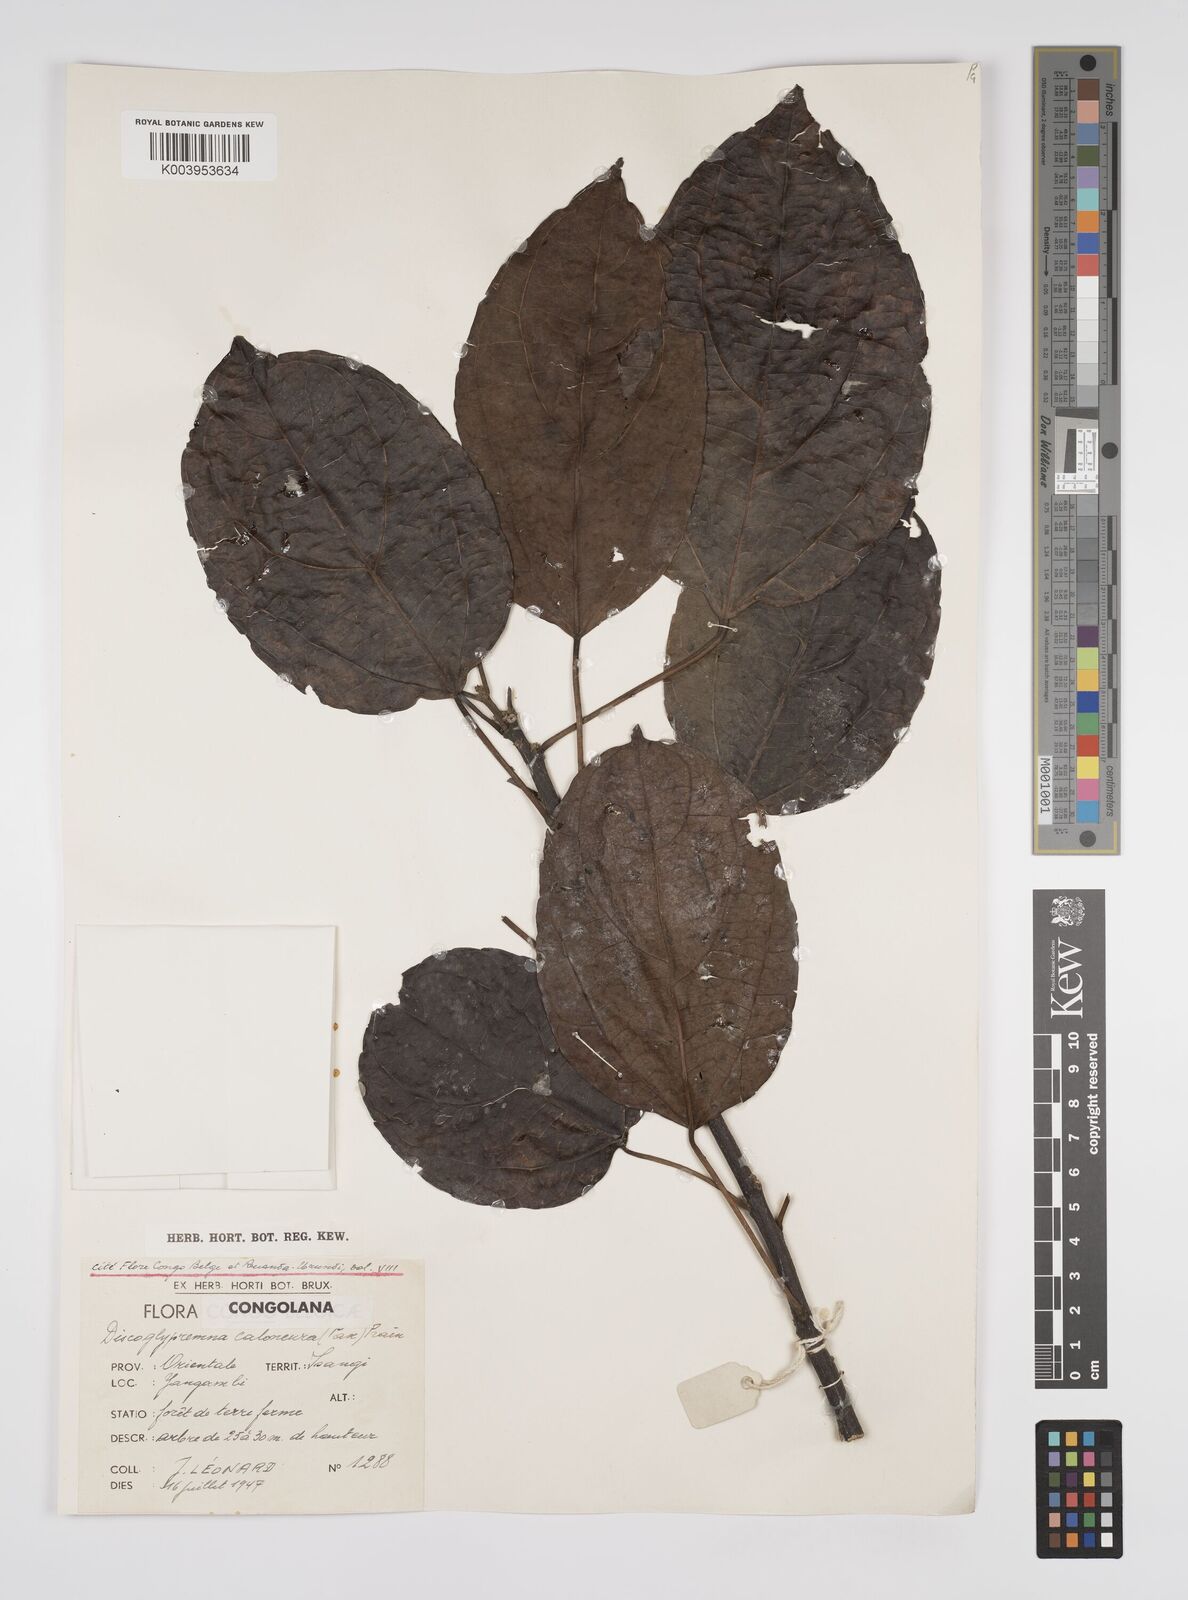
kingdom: Plantae
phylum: Tracheophyta
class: Magnoliopsida
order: Malpighiales
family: Euphorbiaceae
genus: Discoglypremna
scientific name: Discoglypremna caloneura
